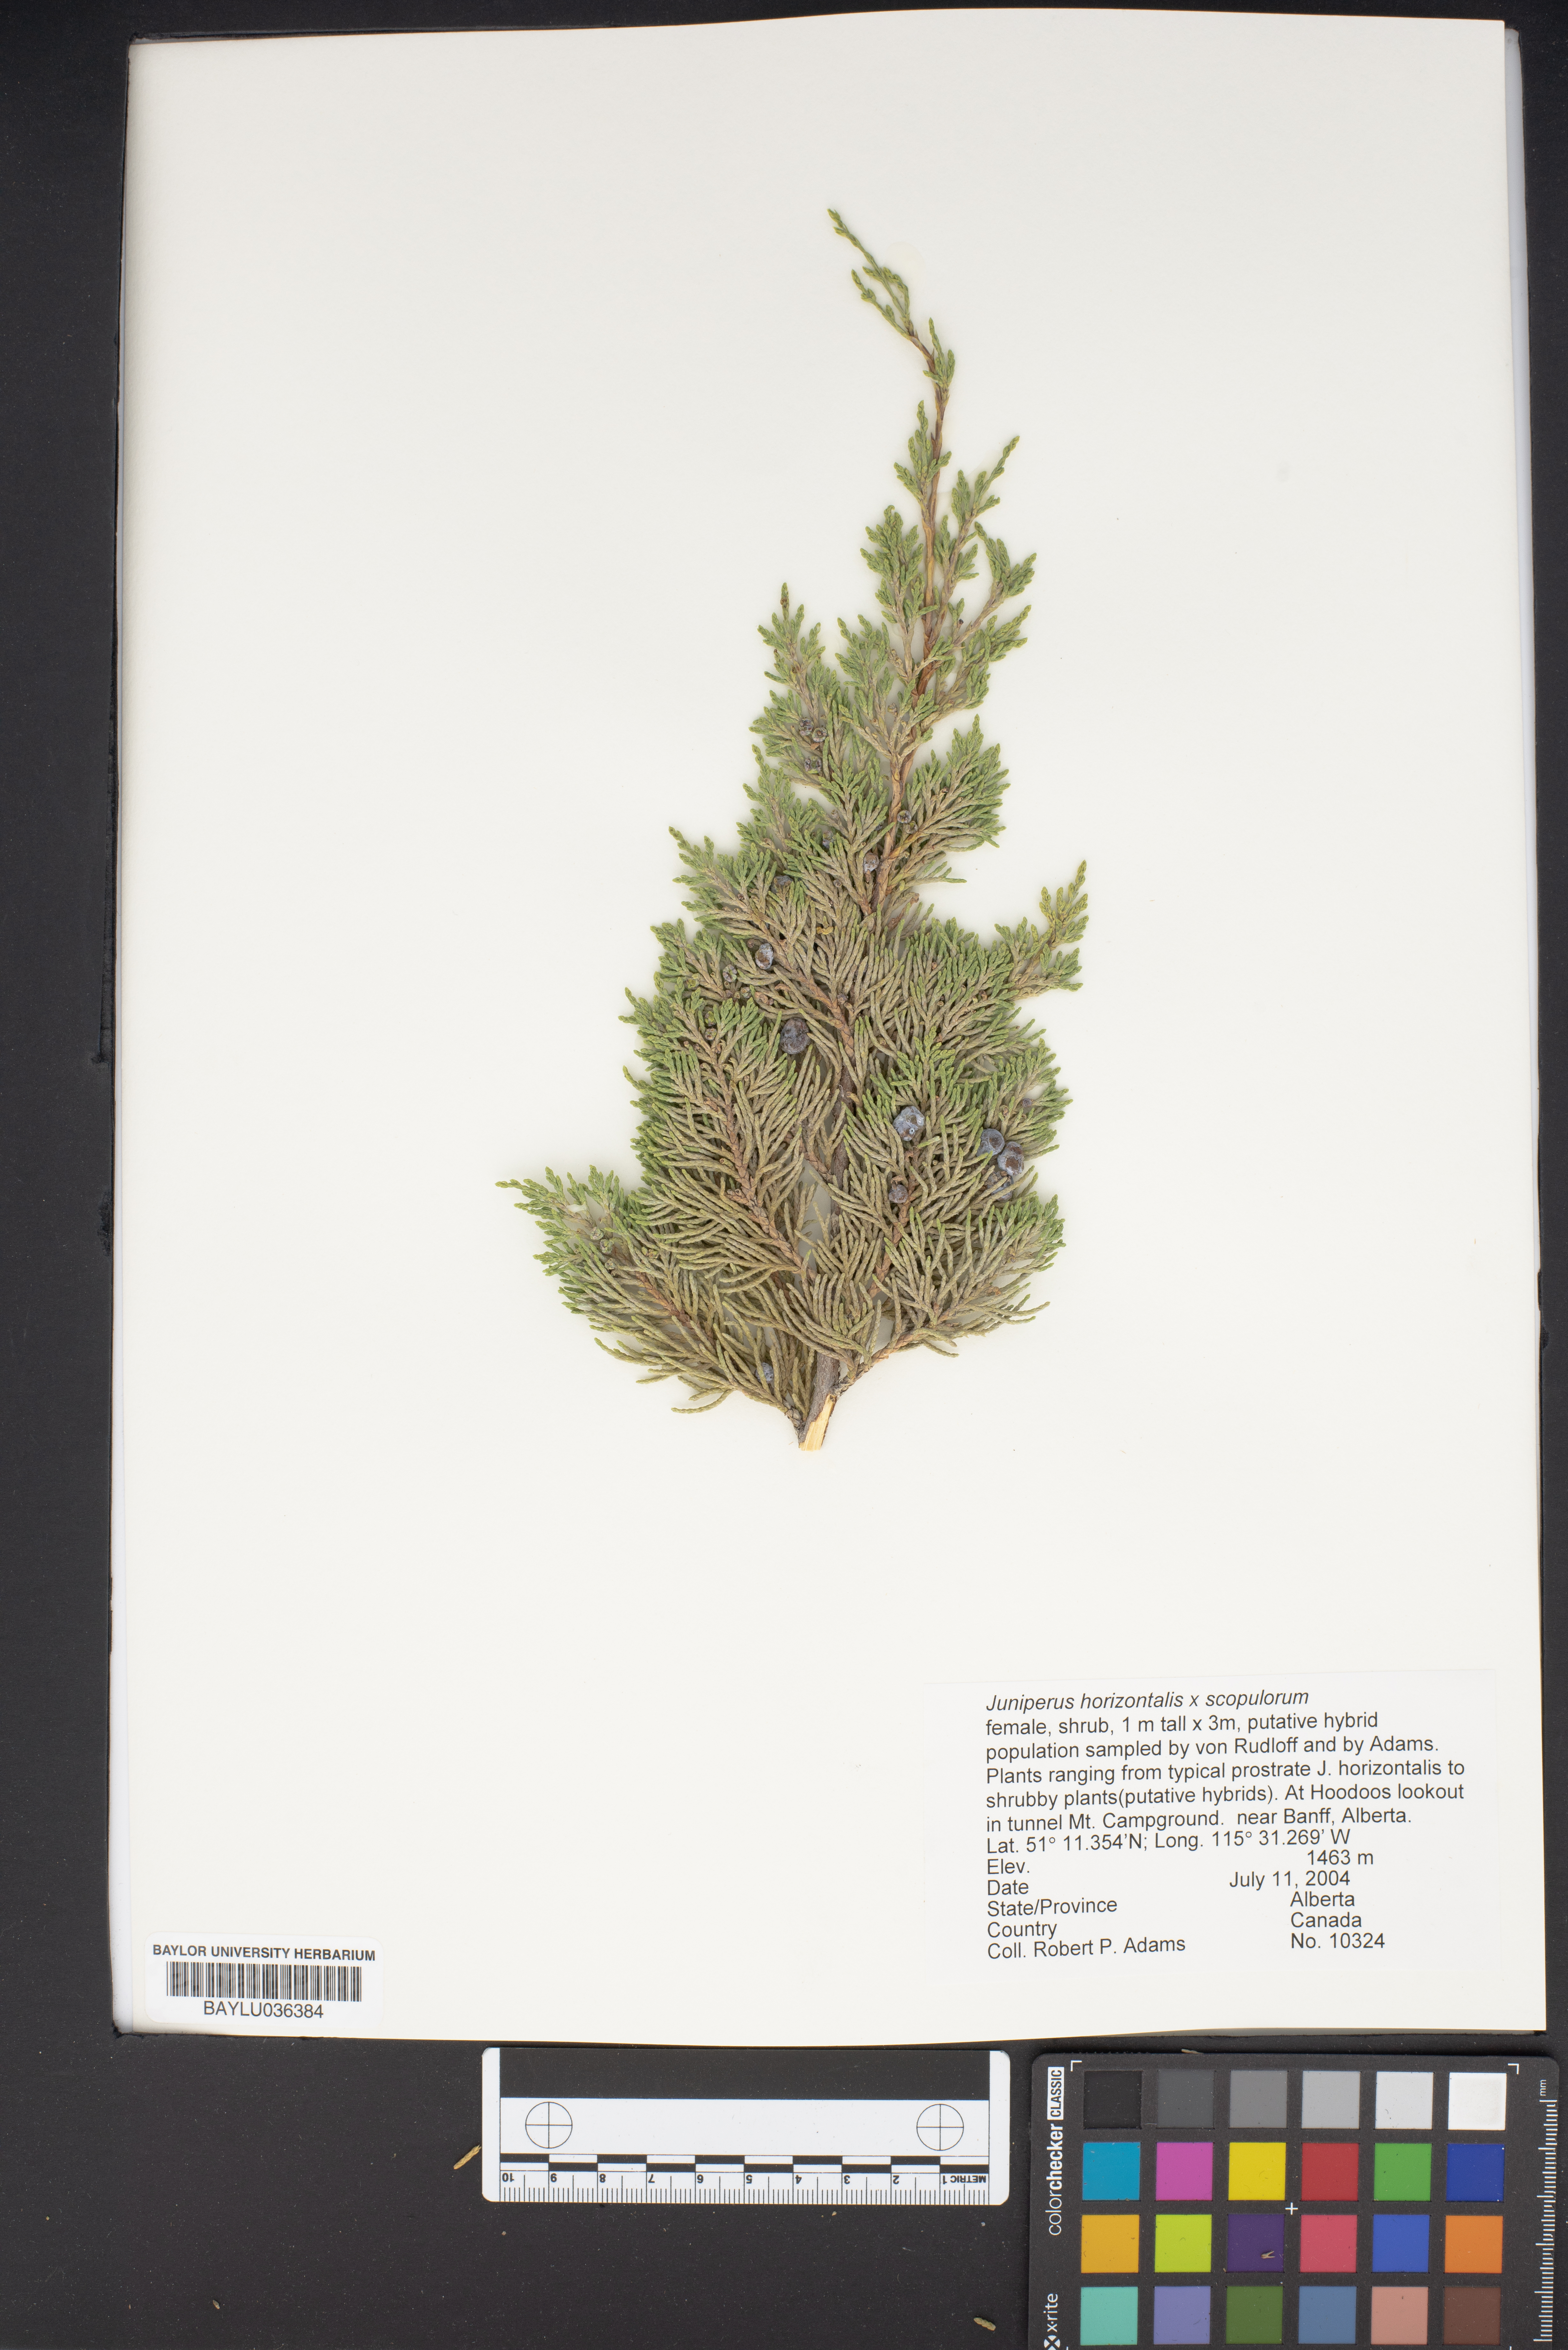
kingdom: Plantae
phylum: Tracheophyta
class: Pinopsida
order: Pinales
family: Cupressaceae
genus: Juniperus
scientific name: Juniperus horizontalis
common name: Creeping juniper
